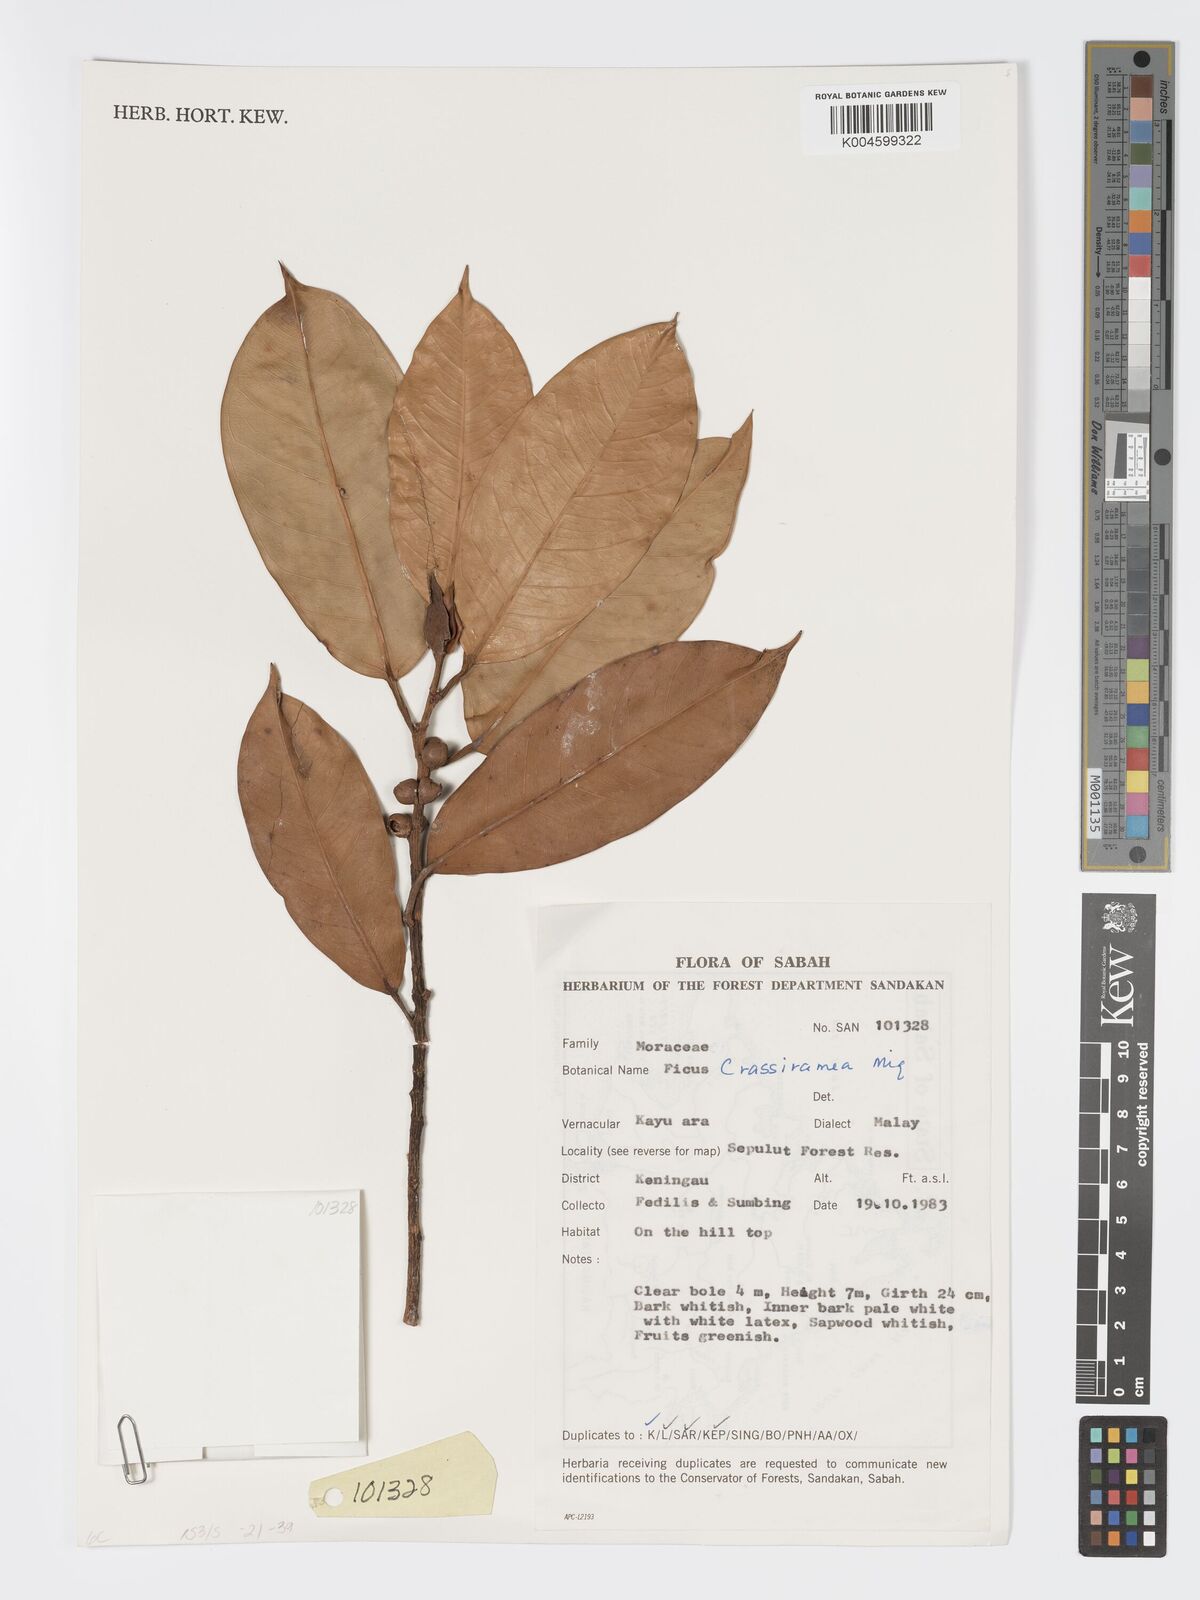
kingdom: Plantae
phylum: Tracheophyta
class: Magnoliopsida
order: Rosales
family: Moraceae
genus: Ficus
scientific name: Ficus crassiramea
